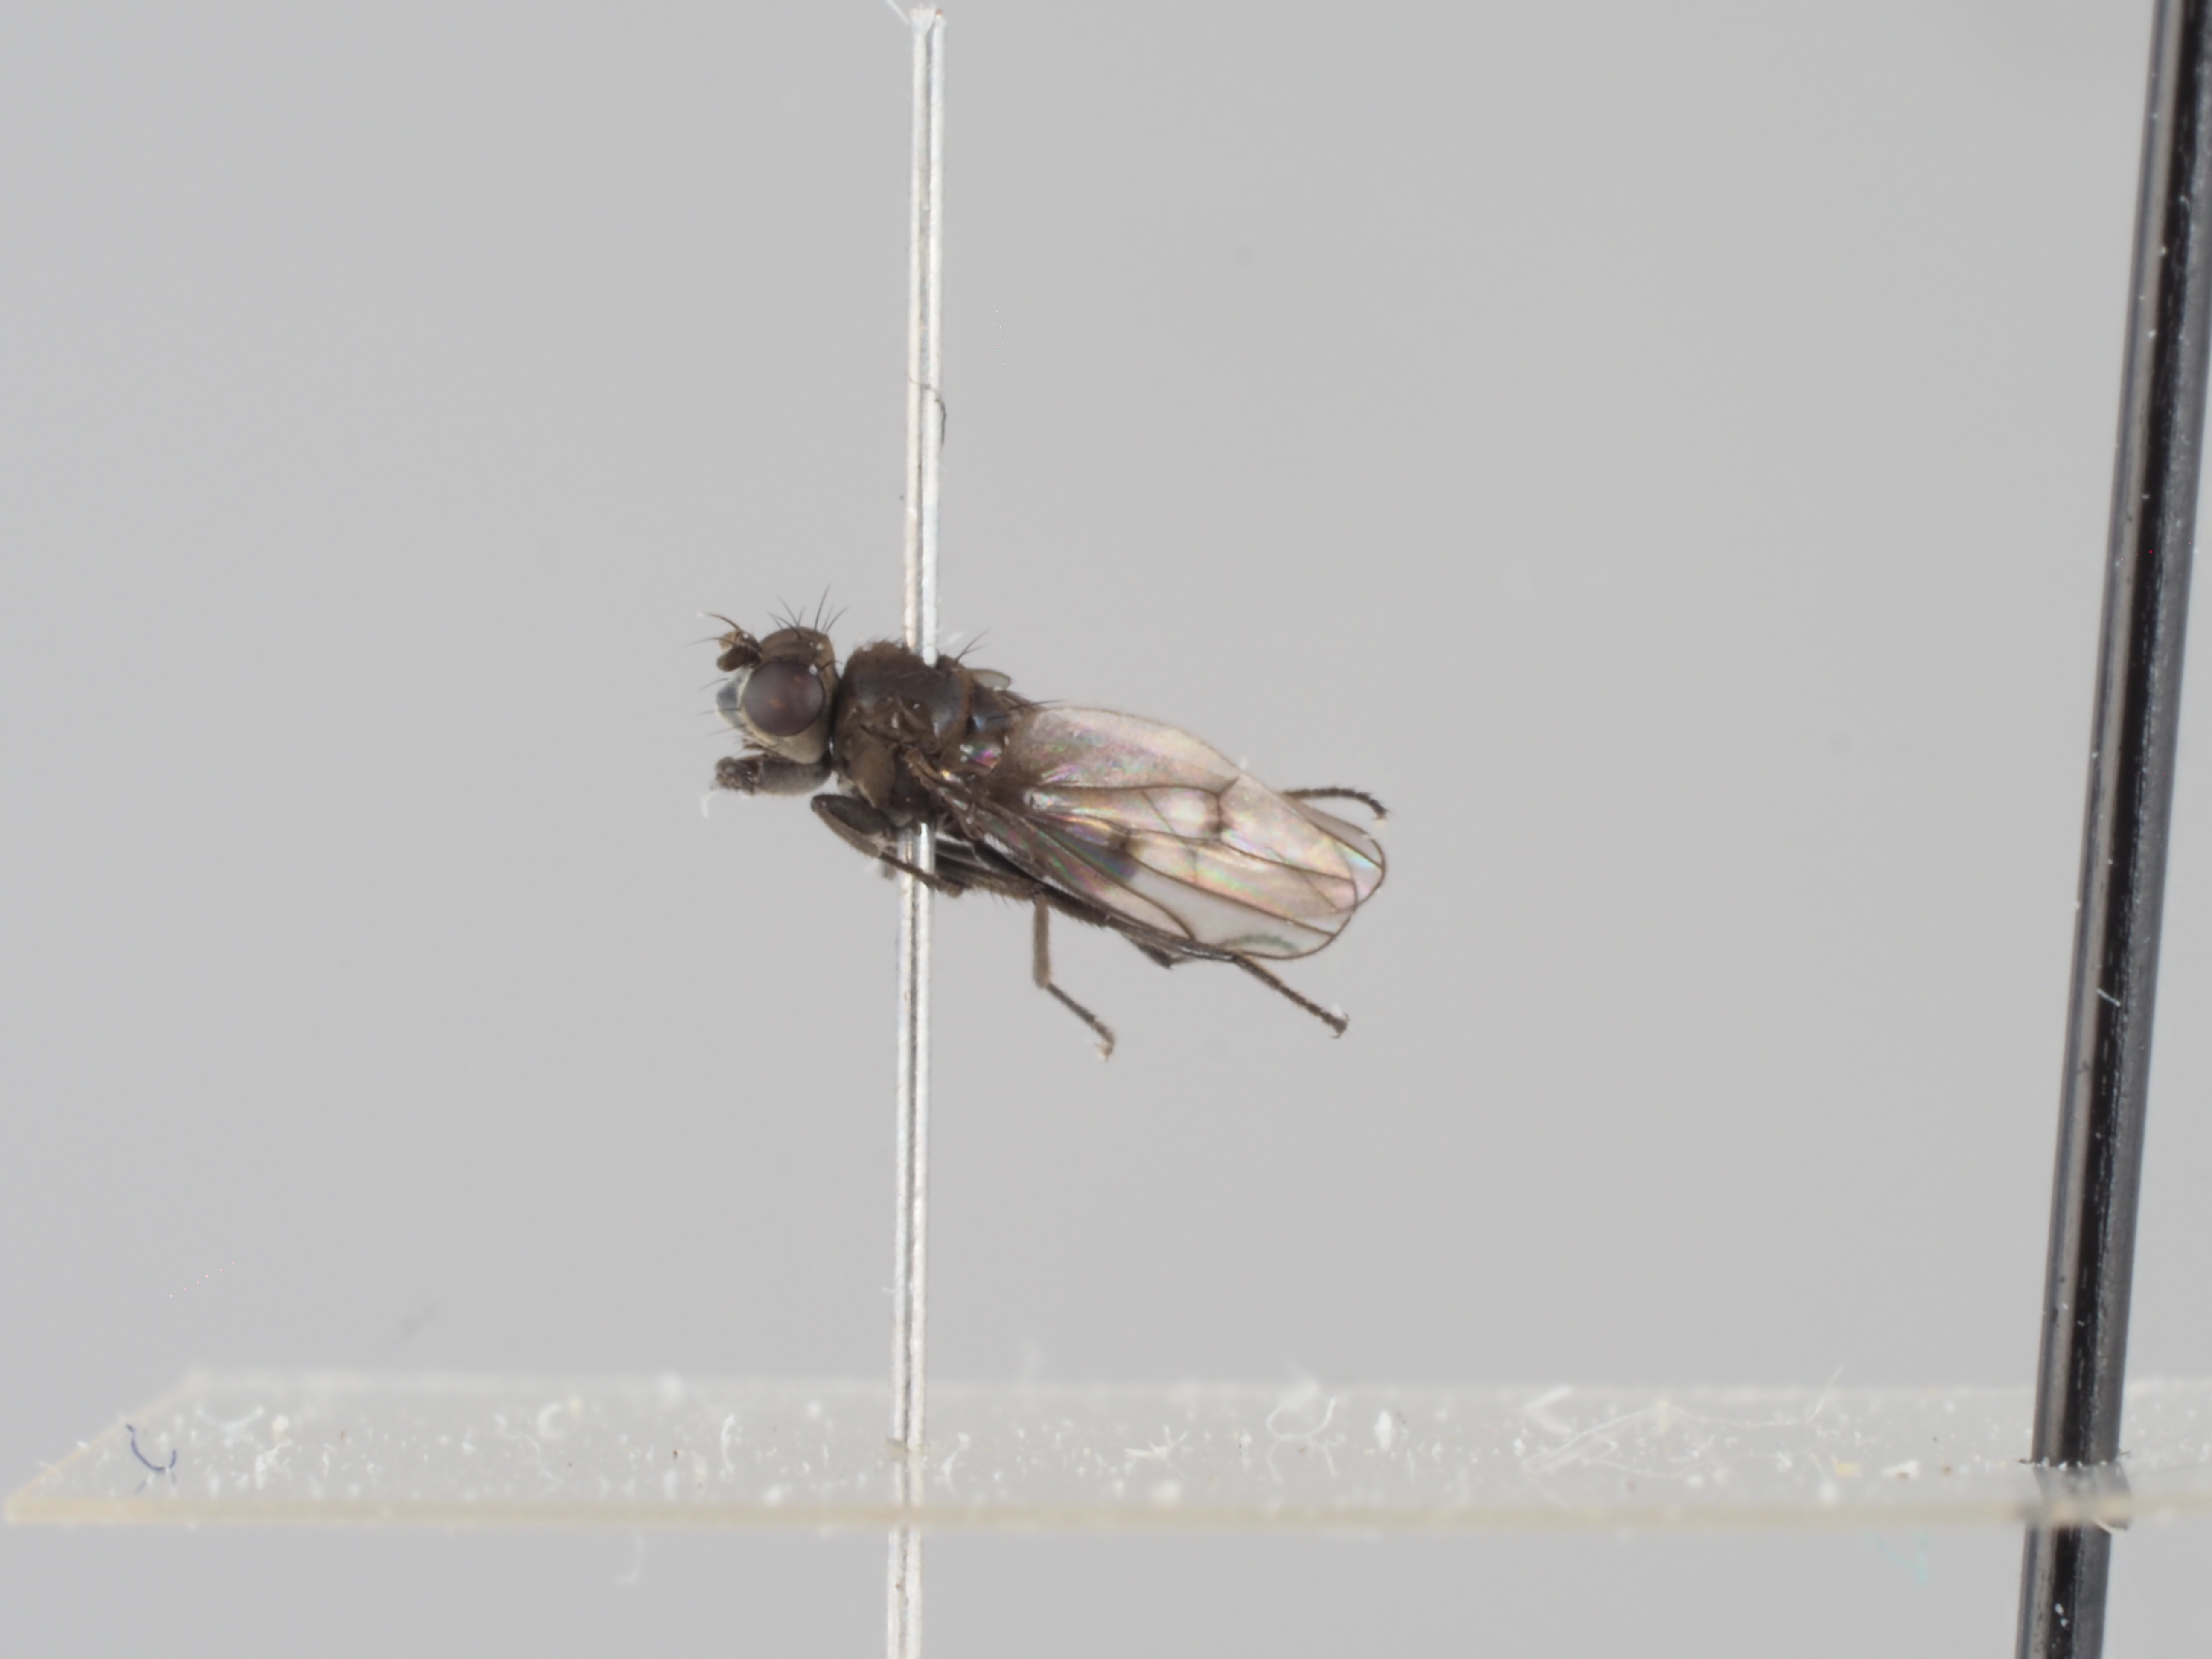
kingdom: Animalia
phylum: Arthropoda
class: Insecta
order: Diptera
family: Ephydridae
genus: Parydra
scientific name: Parydra pusilla
